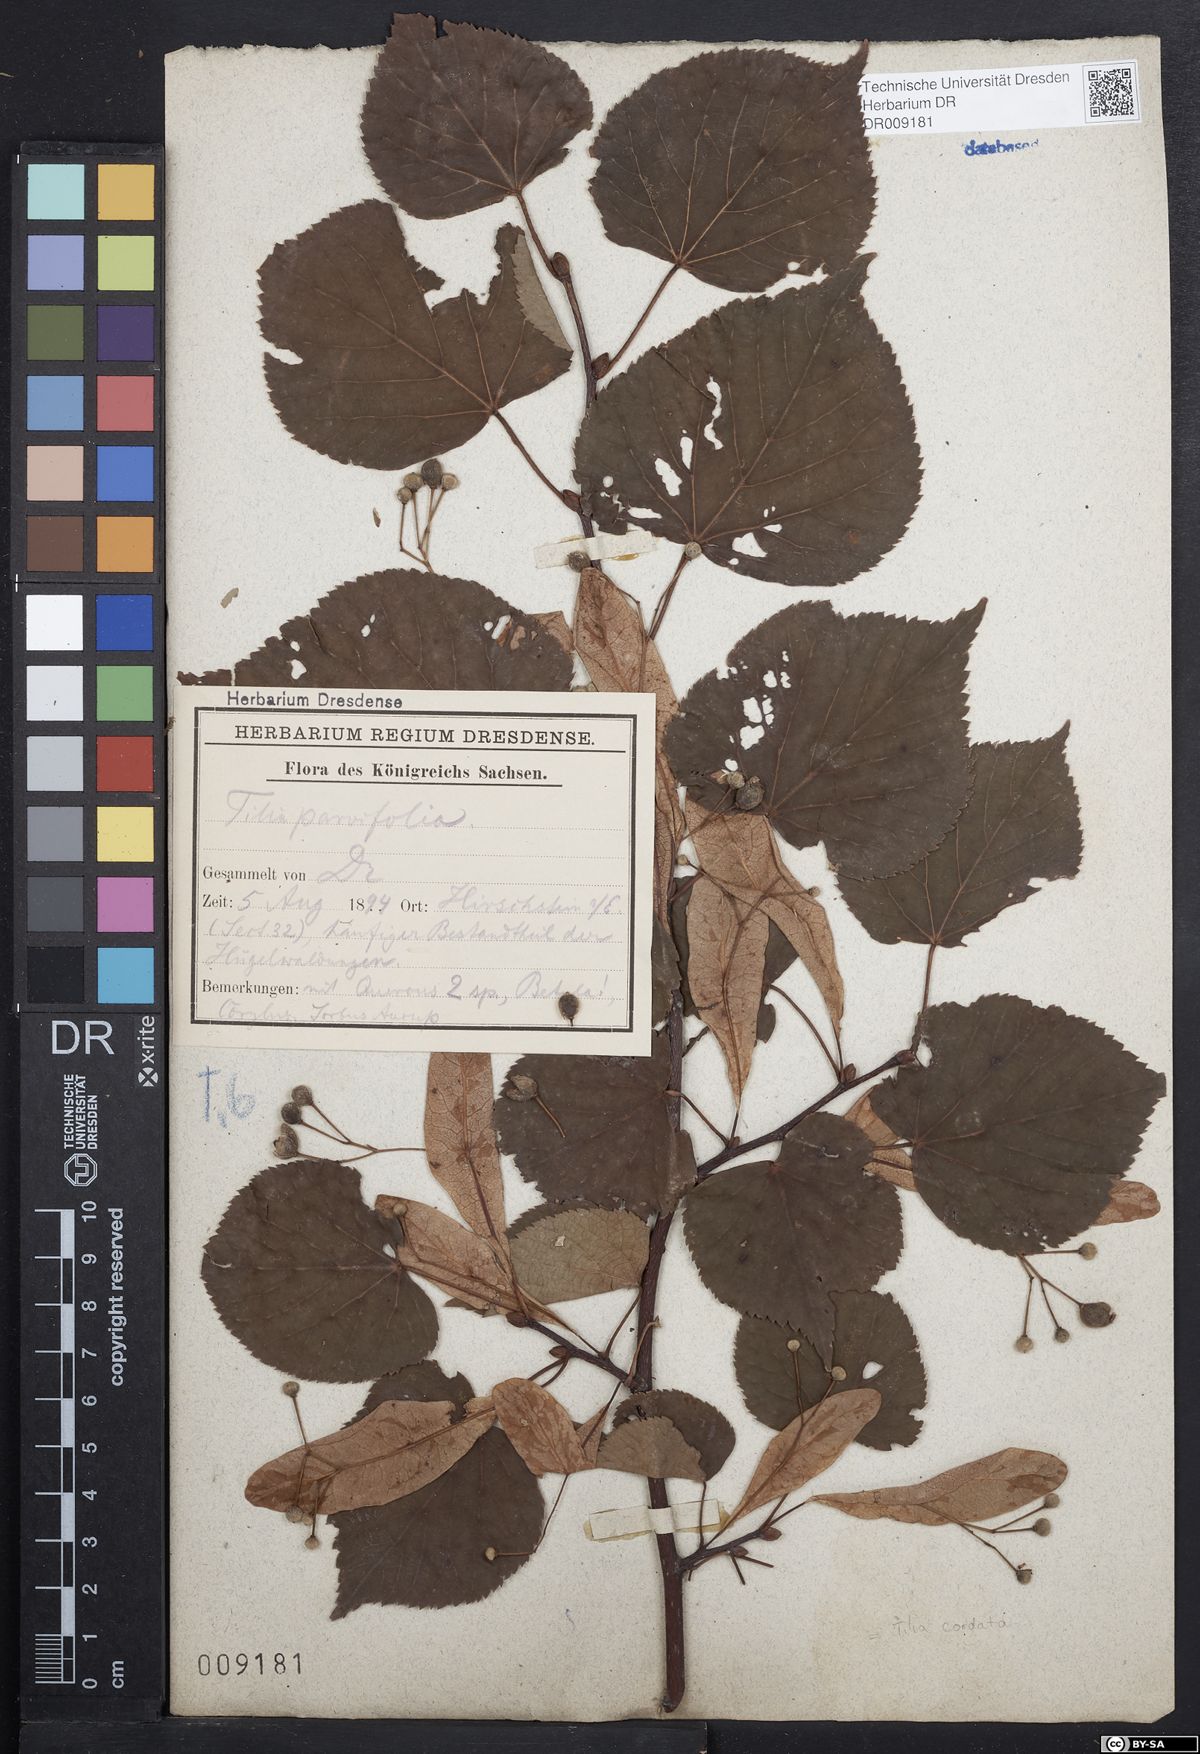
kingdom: Plantae
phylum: Tracheophyta
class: Magnoliopsida
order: Malvales
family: Malvaceae
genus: Tilia
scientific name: Tilia cordata
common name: Small-leaved lime
